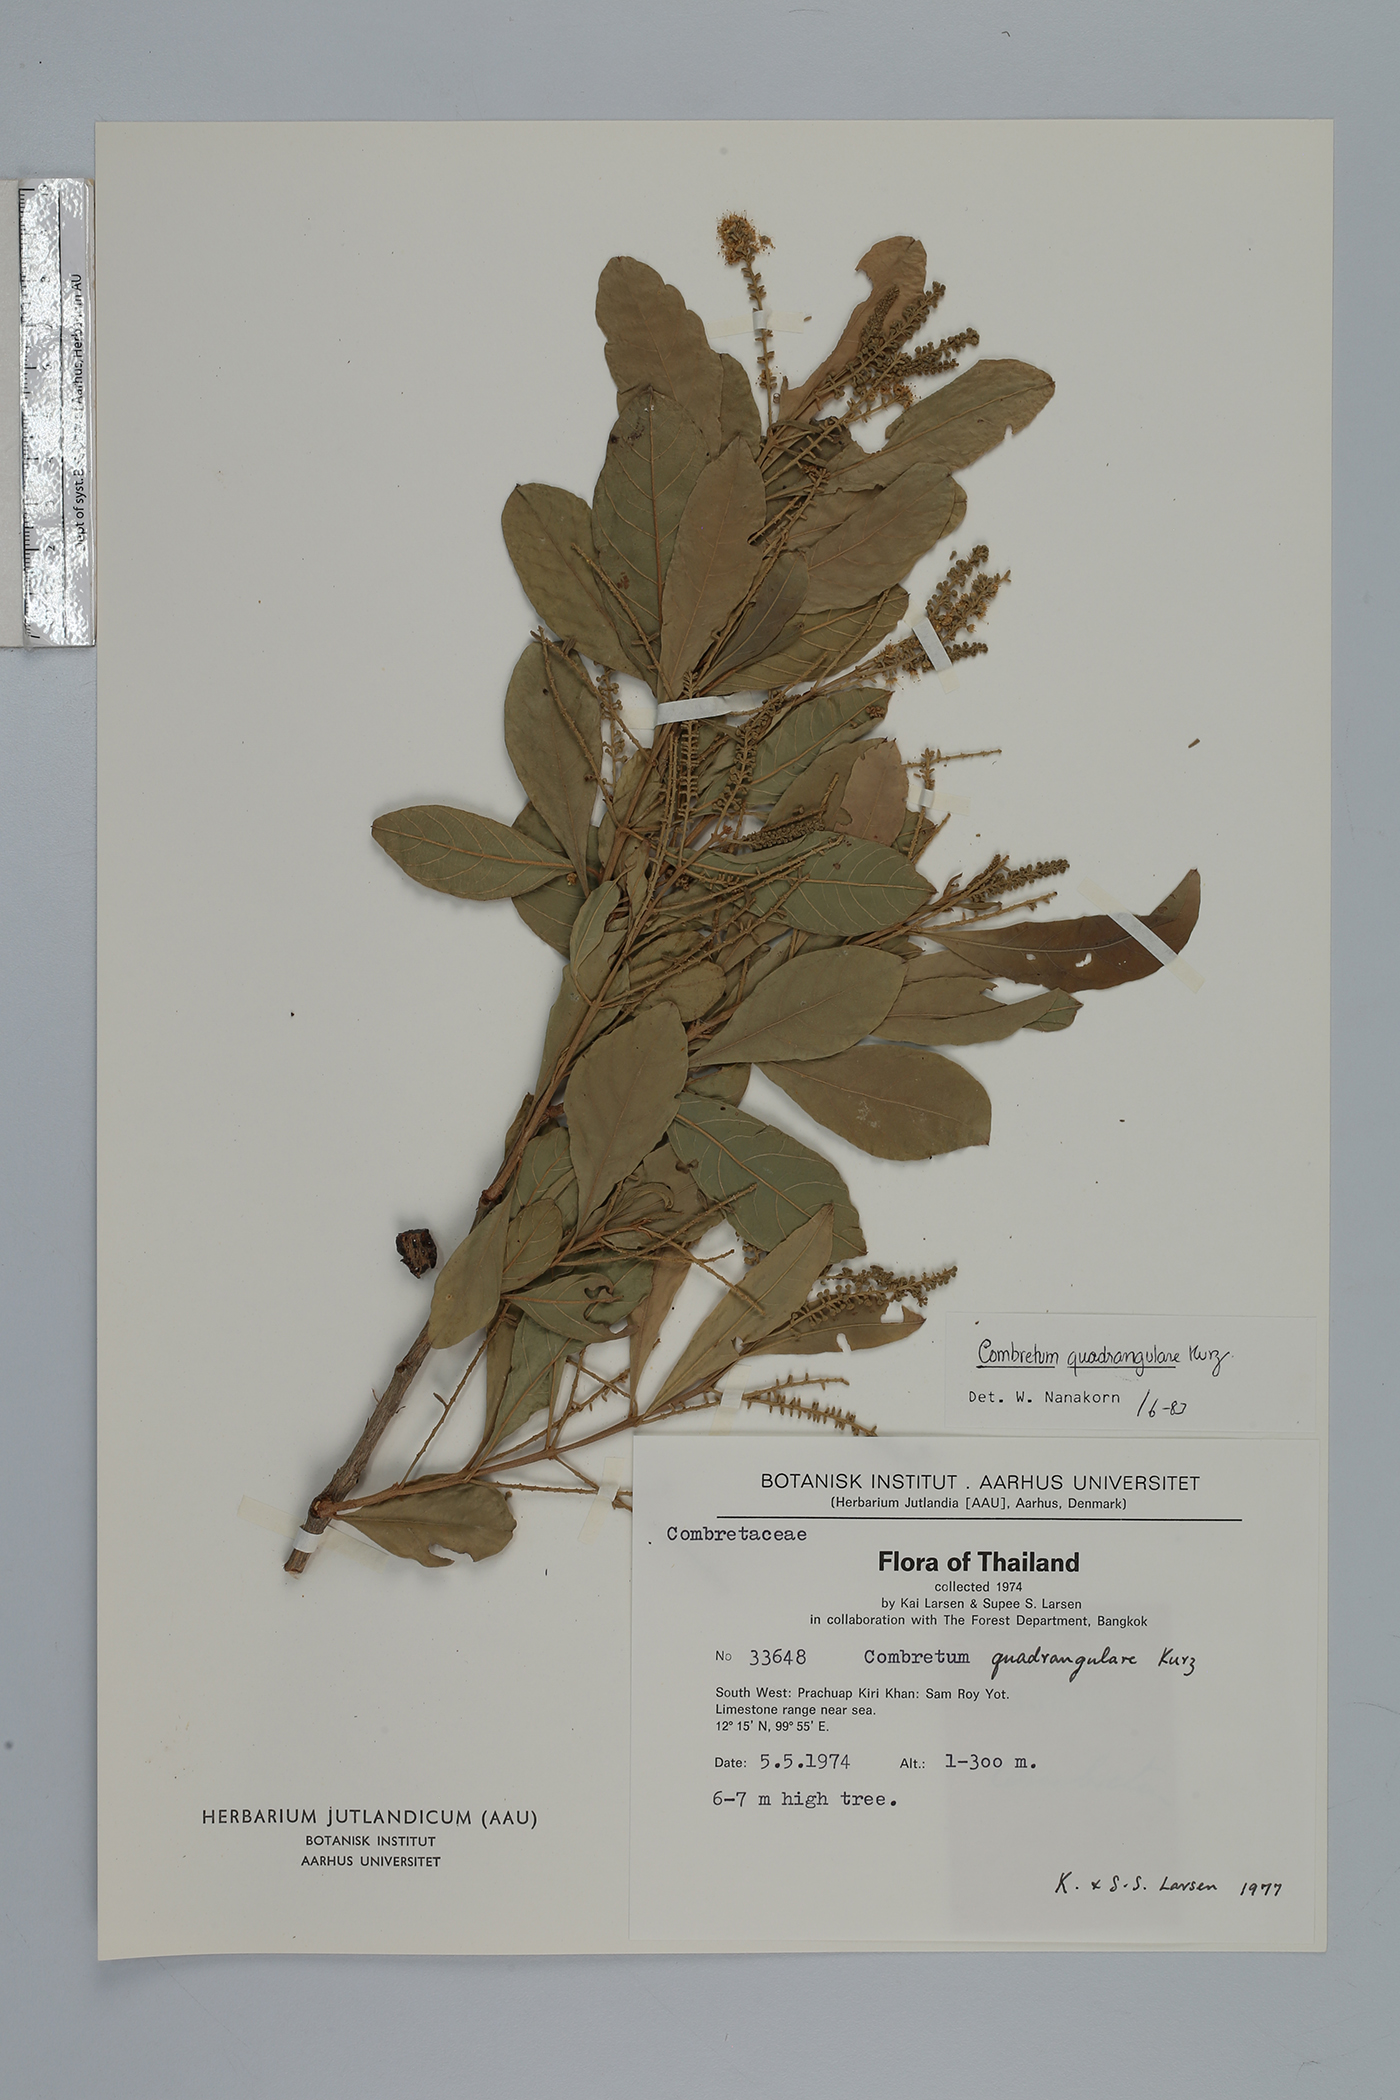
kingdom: Plantae
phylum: Tracheophyta
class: Magnoliopsida
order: Myrtales
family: Combretaceae
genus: Combretum
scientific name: Combretum quadrangulare
